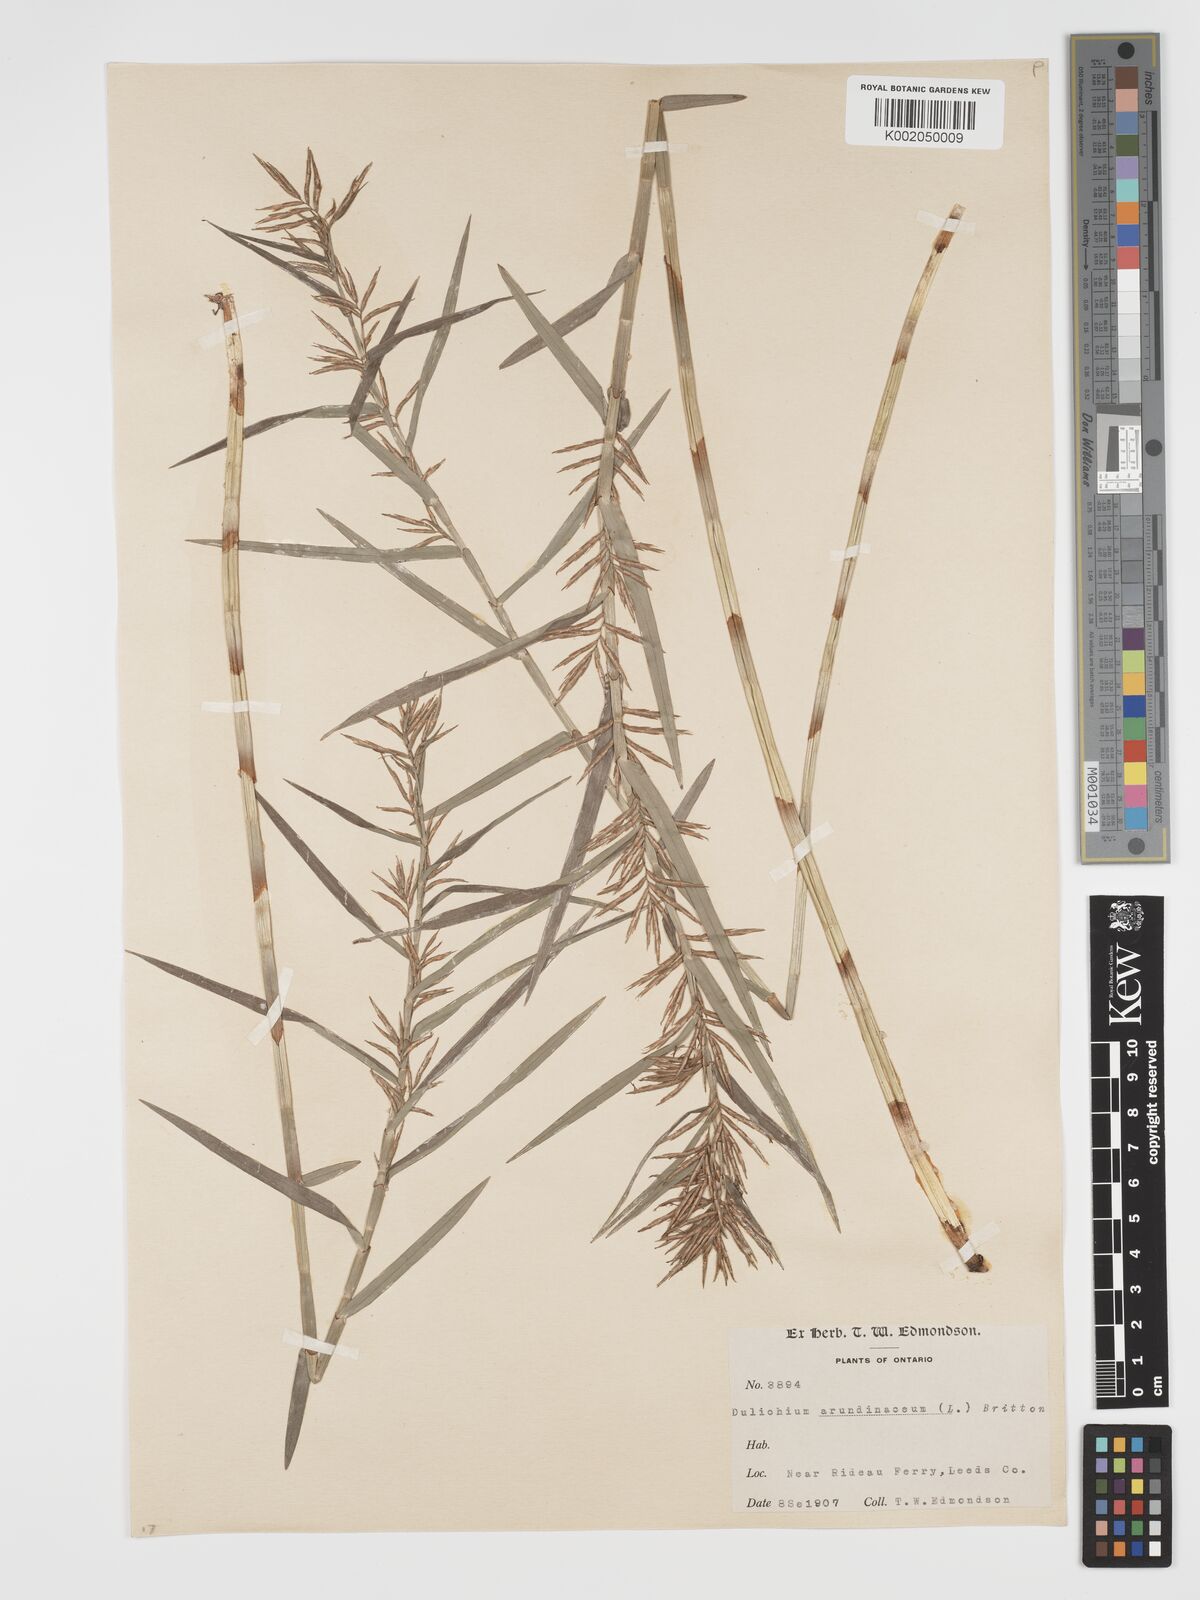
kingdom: Plantae
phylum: Tracheophyta
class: Liliopsida
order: Poales
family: Cyperaceae
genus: Dulichium
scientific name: Dulichium arundinaceum
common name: Three-way sedge
